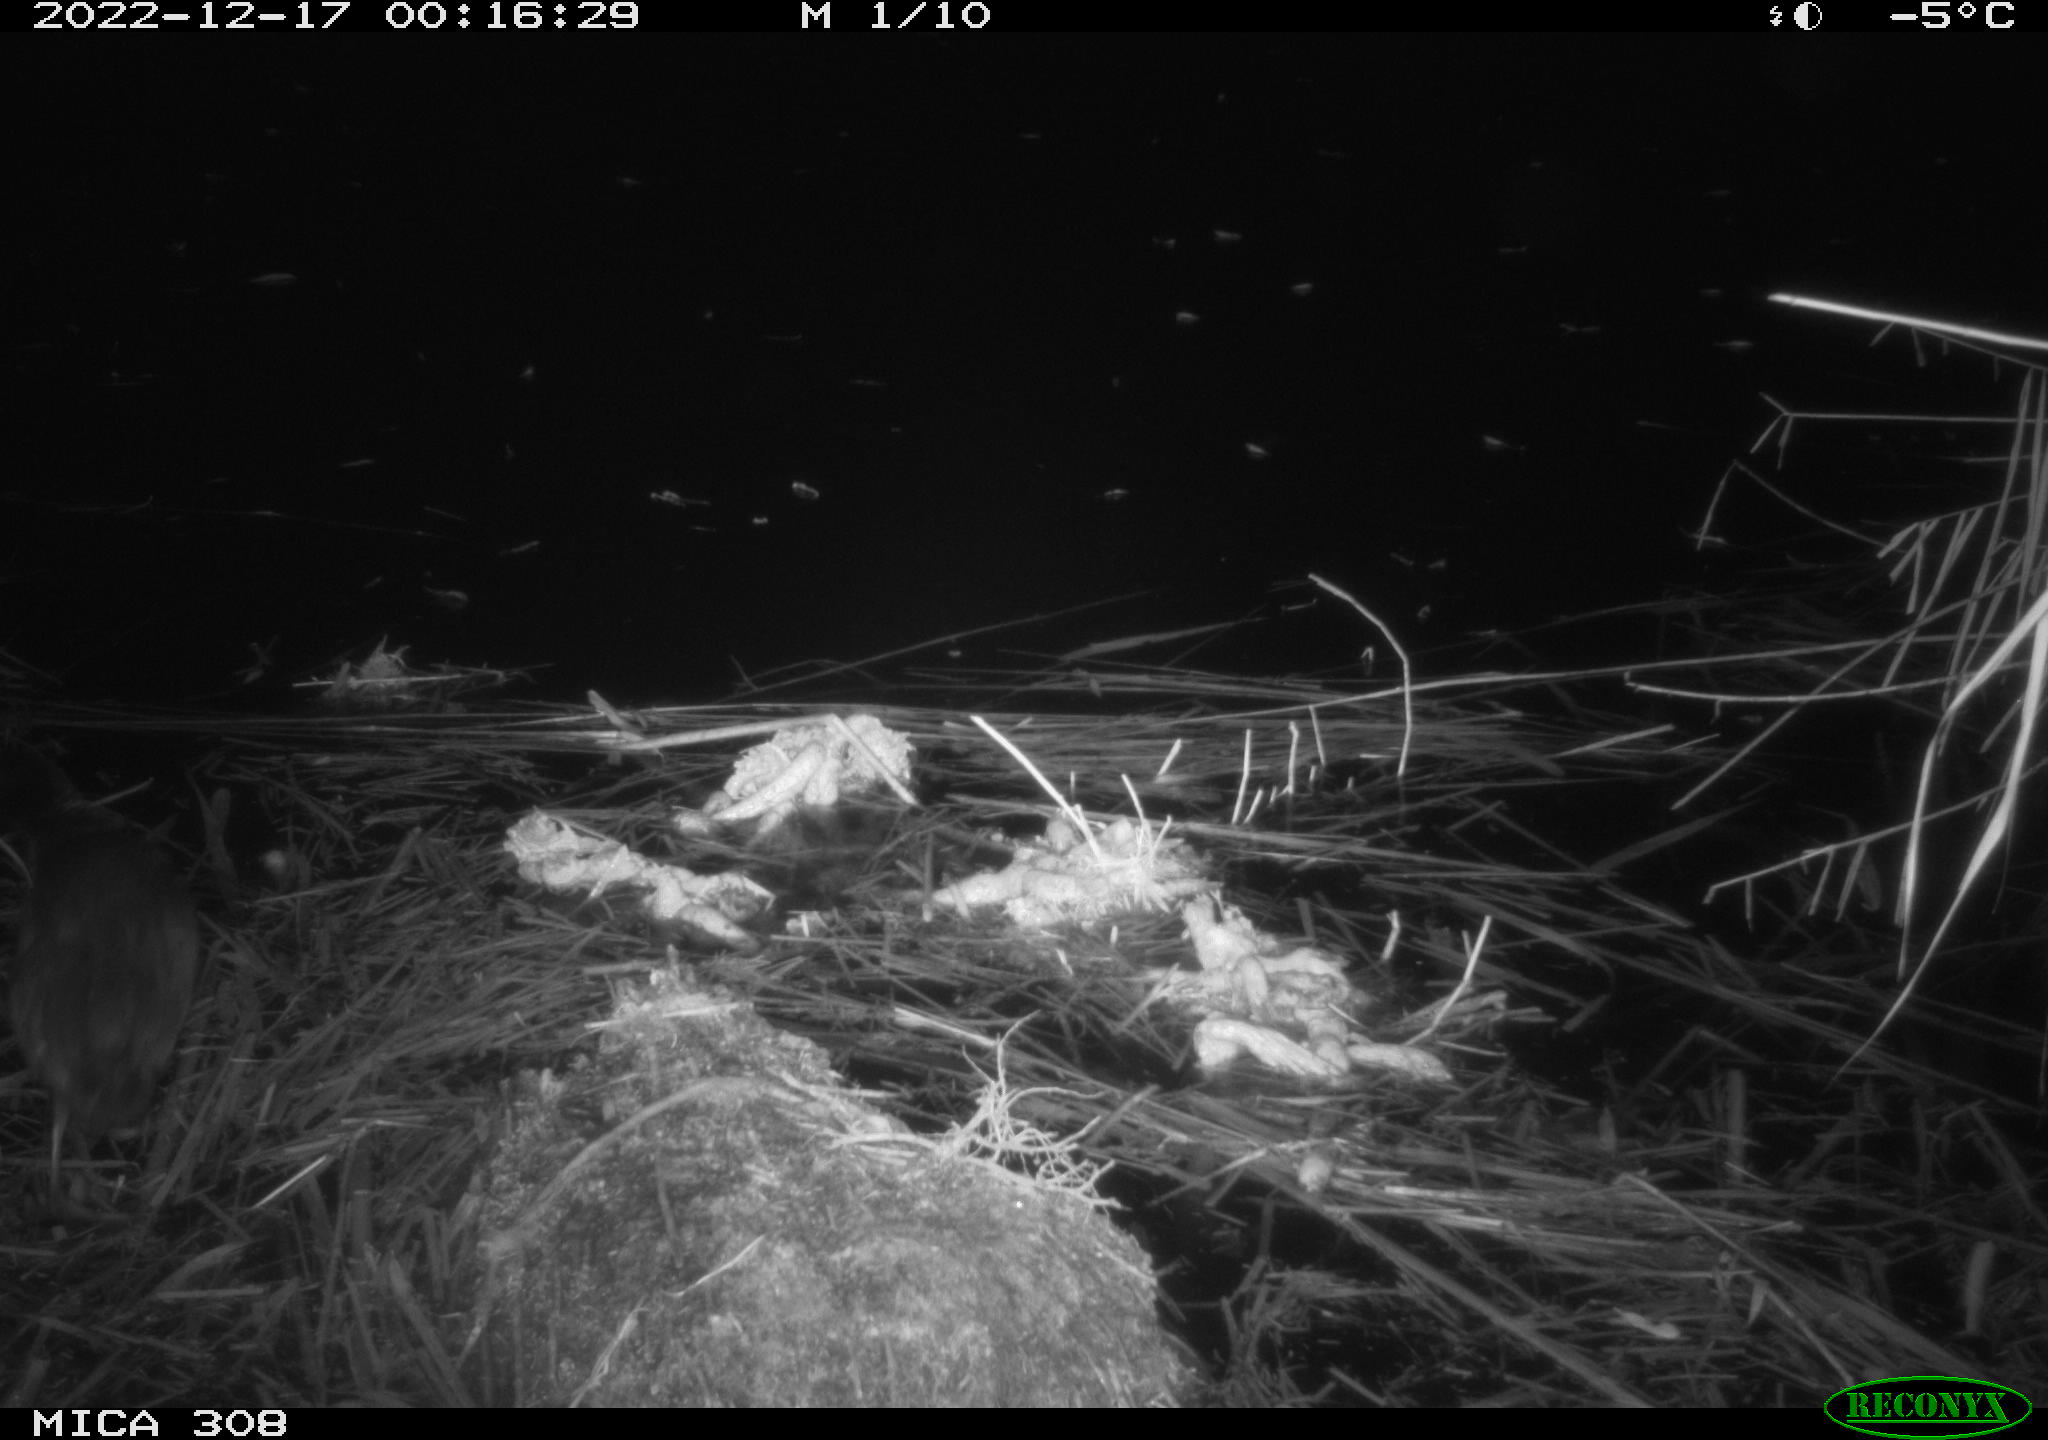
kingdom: Animalia
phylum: Chordata
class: Aves
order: Gruiformes
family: Rallidae
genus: Fulica
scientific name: Fulica atra
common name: Eurasian coot
